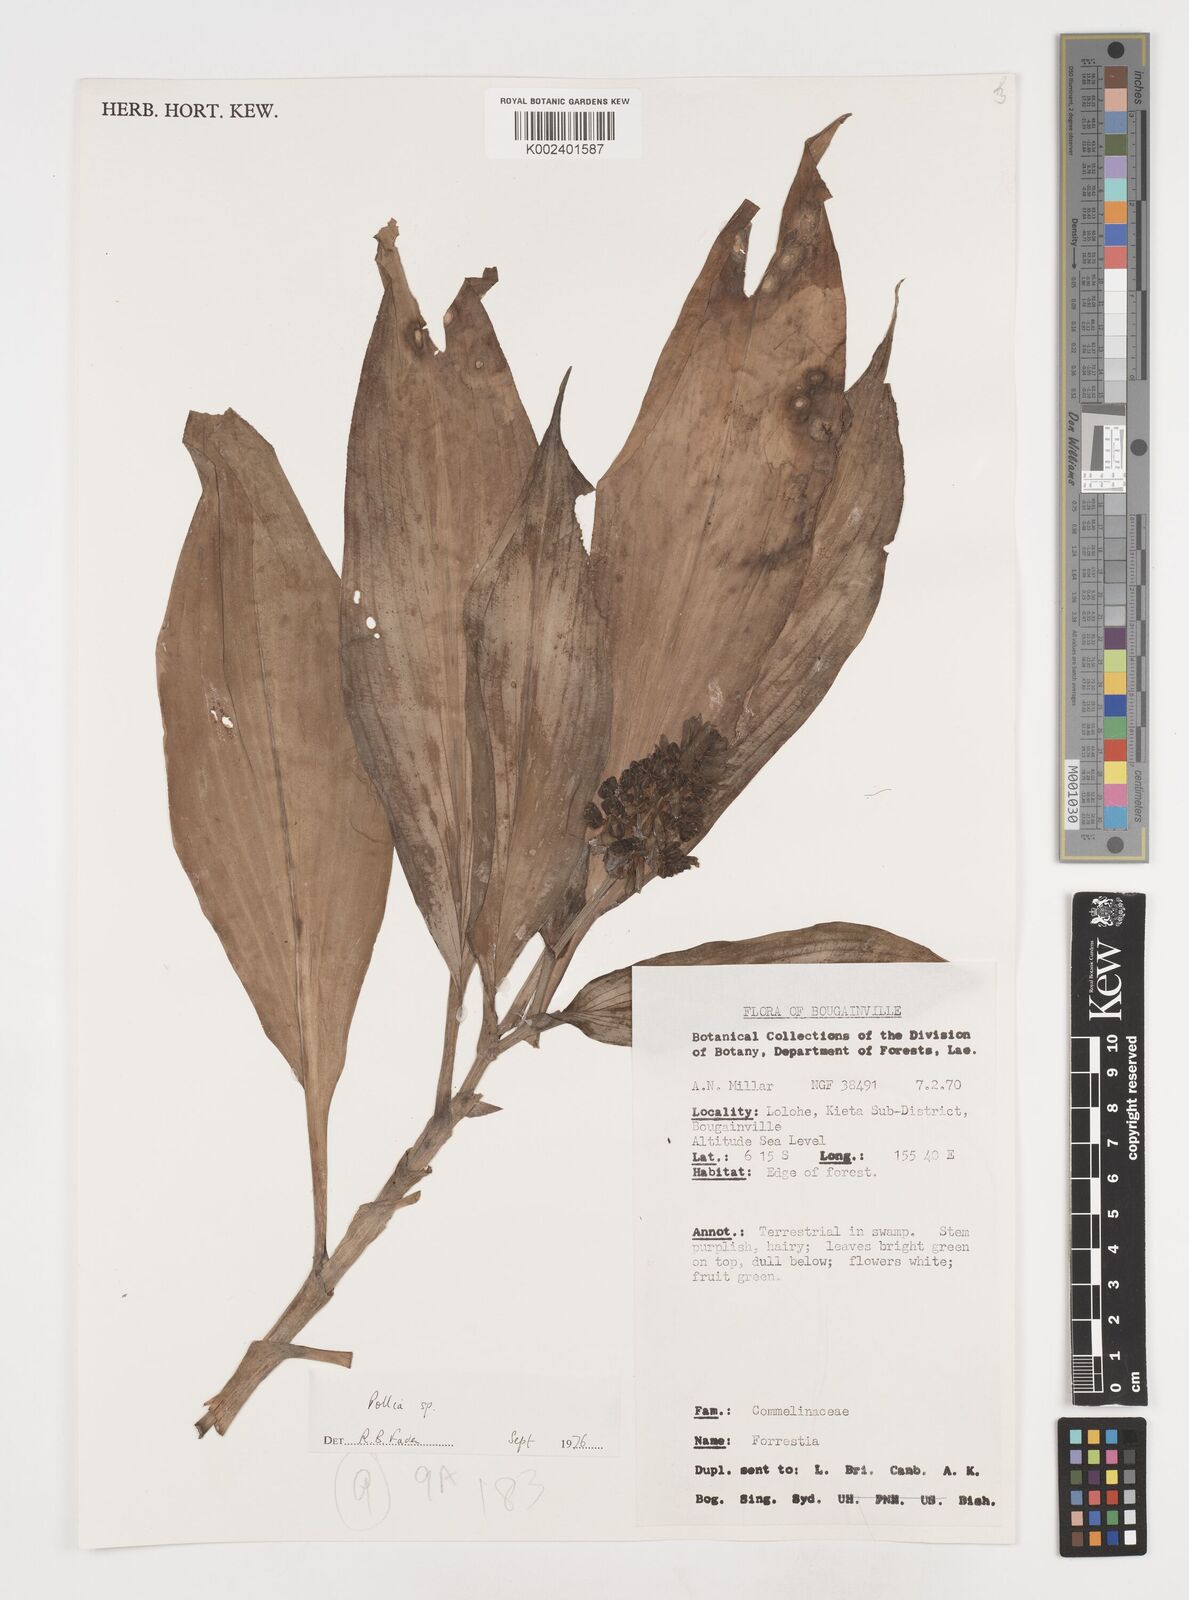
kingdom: Plantae
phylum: Tracheophyta
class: Liliopsida
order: Commelinales
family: Commelinaceae
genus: Pollia
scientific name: Pollia
